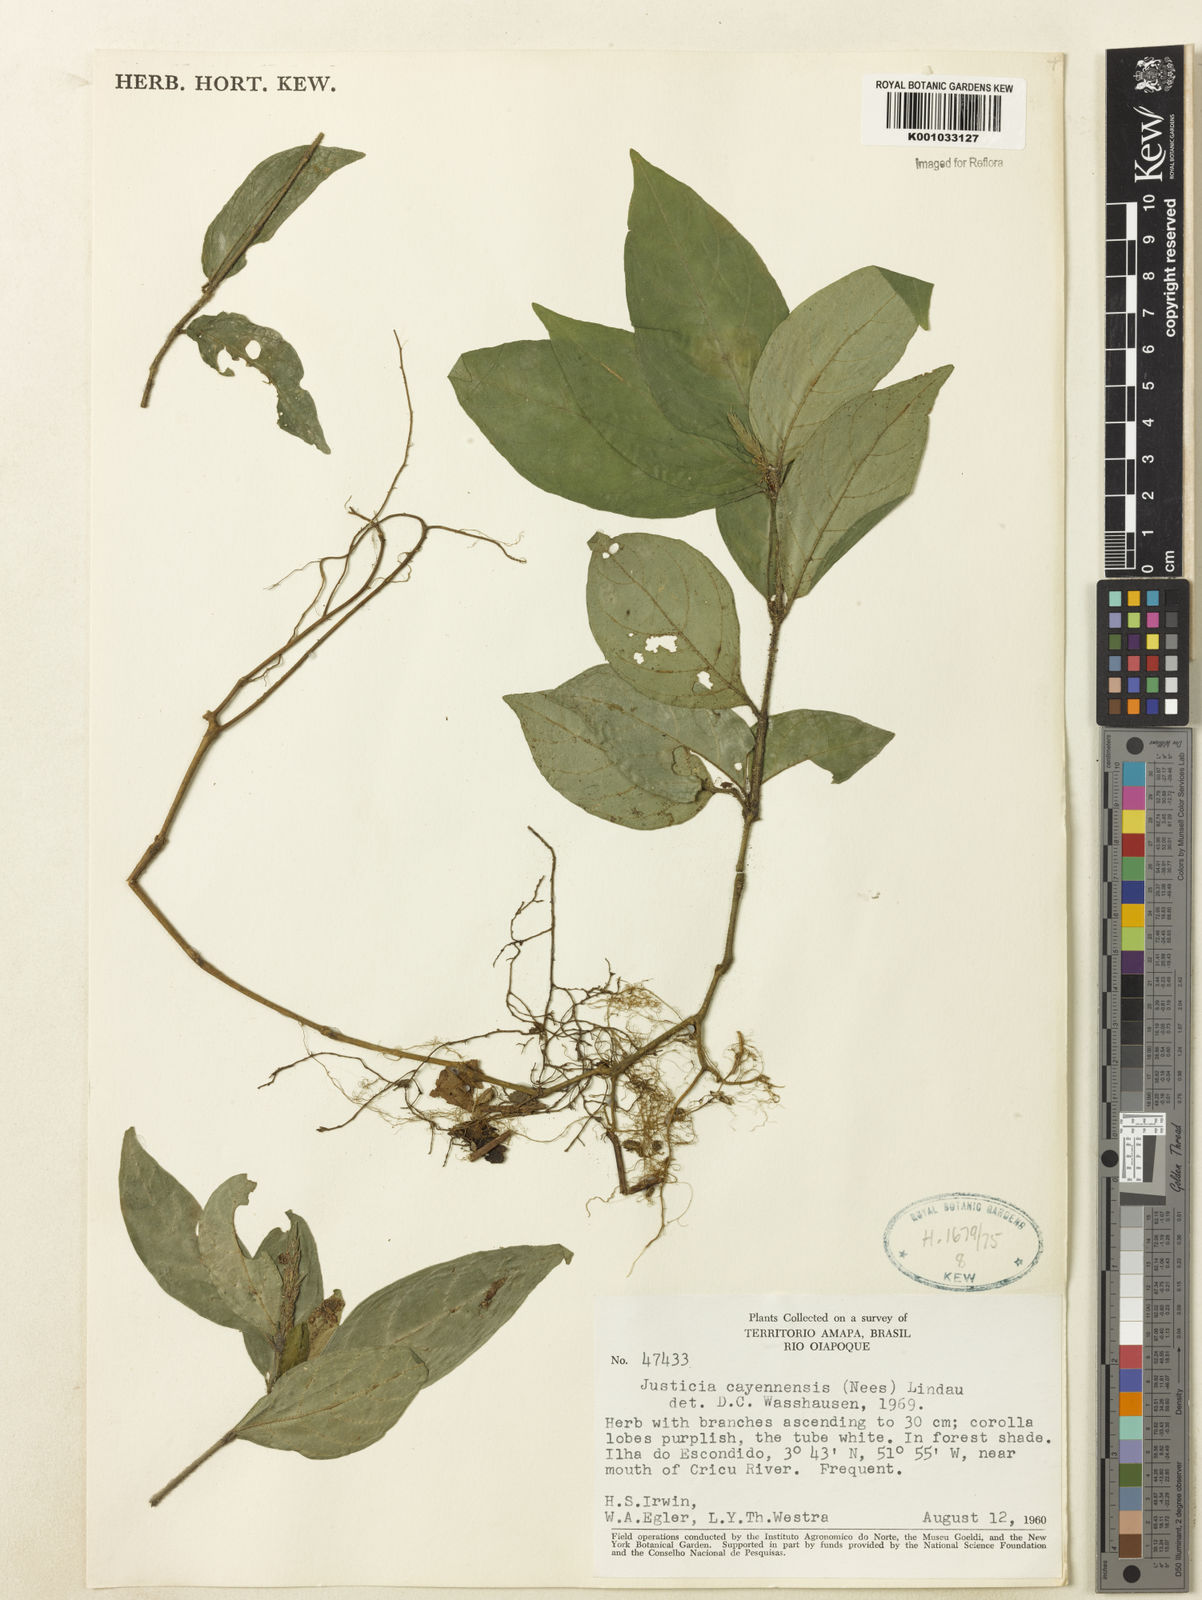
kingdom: Plantae
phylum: Tracheophyta
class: Magnoliopsida
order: Lamiales
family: Acanthaceae
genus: Dianthera
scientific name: Dianthera cayennensis
